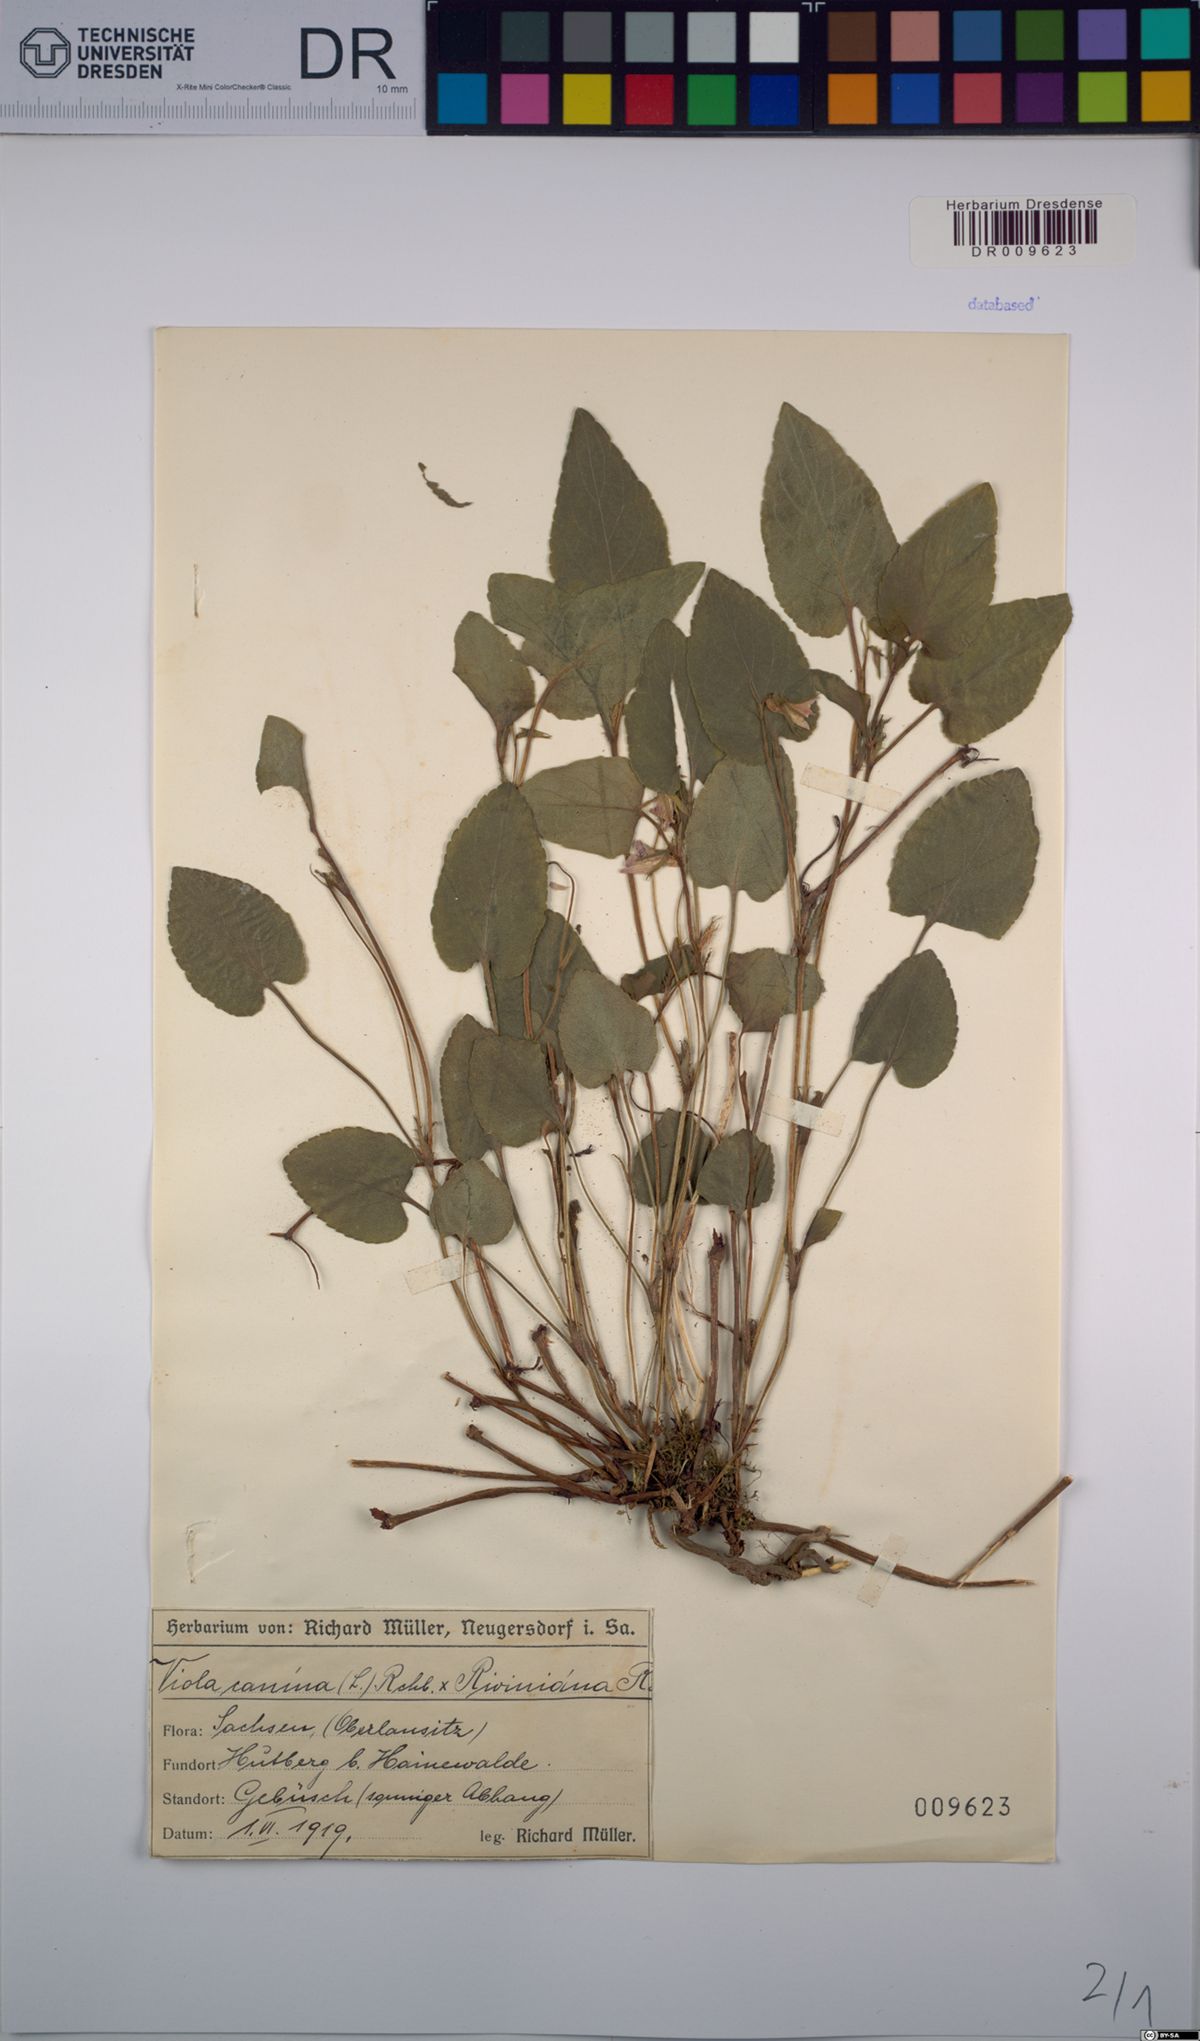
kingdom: Plantae
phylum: Tracheophyta
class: Magnoliopsida
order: Malpighiales
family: Violaceae
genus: Viola
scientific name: Viola riviniana
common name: Common dog-violet
